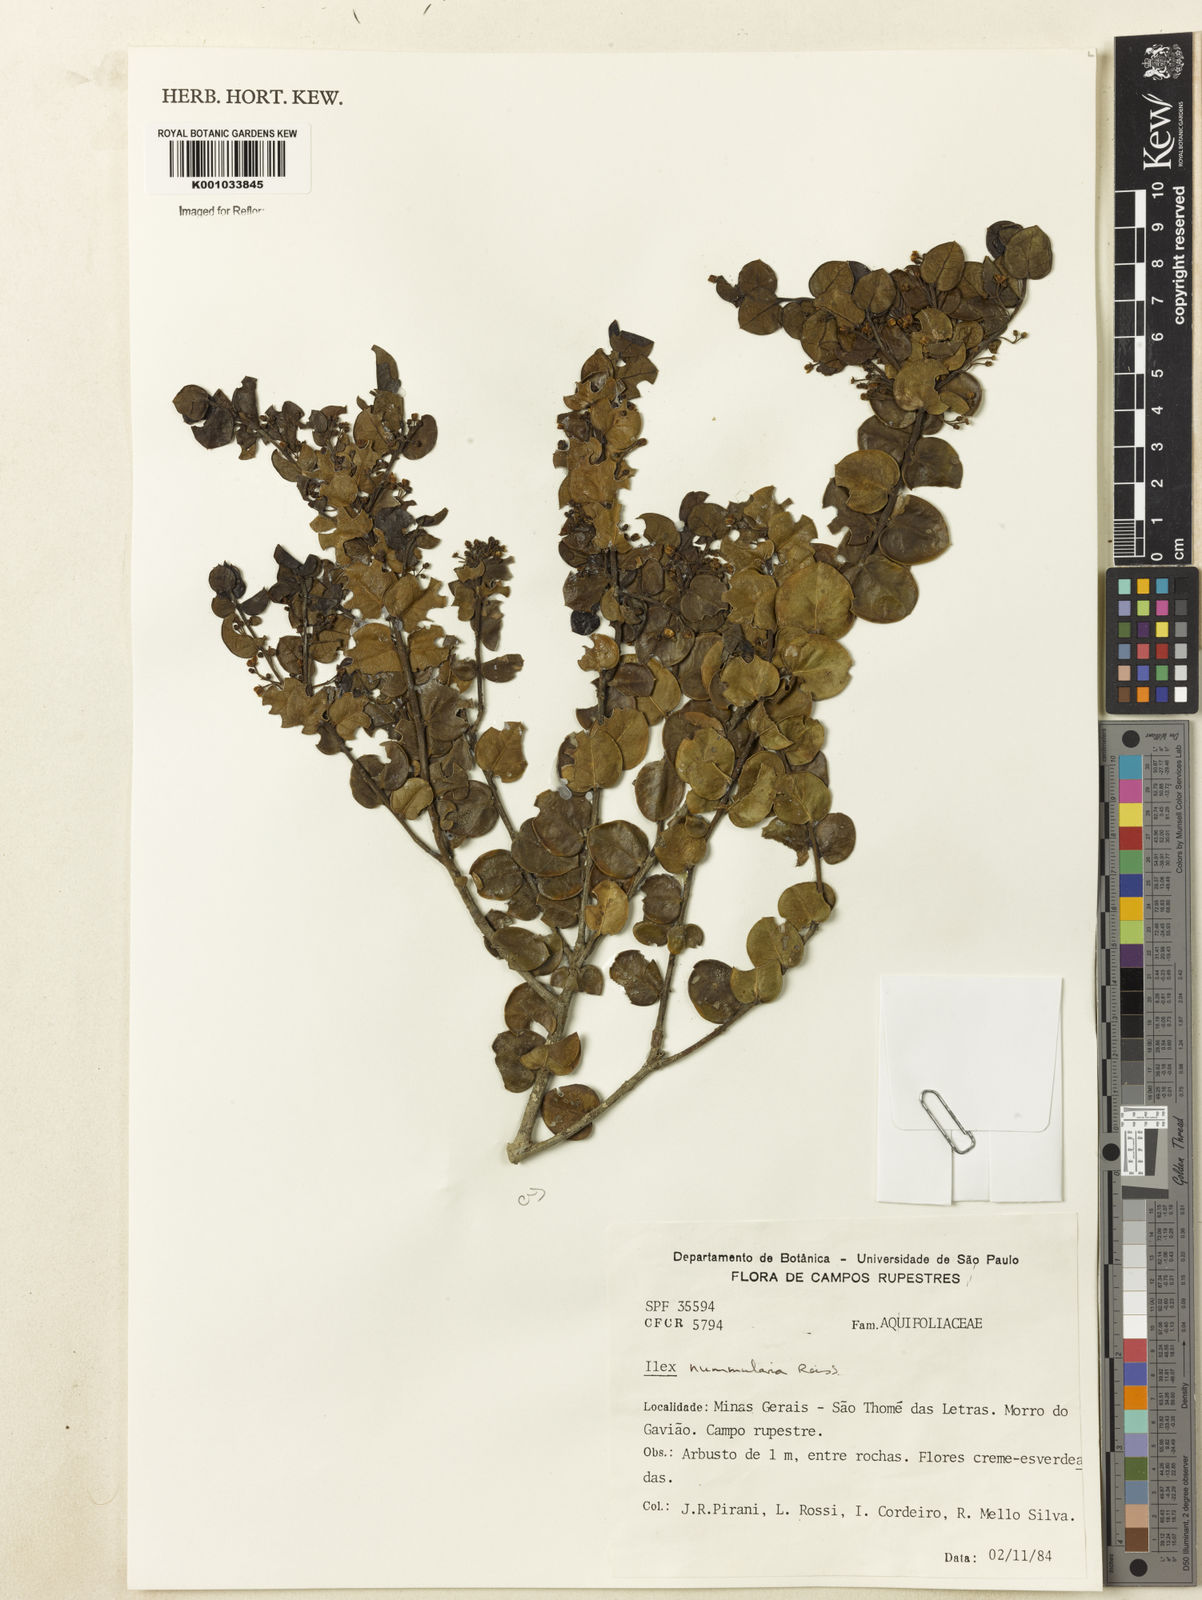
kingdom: Plantae
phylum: Tracheophyta
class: Magnoliopsida
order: Aquifoliales
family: Aquifoliaceae
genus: Ilex
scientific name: Ilex nummularia
